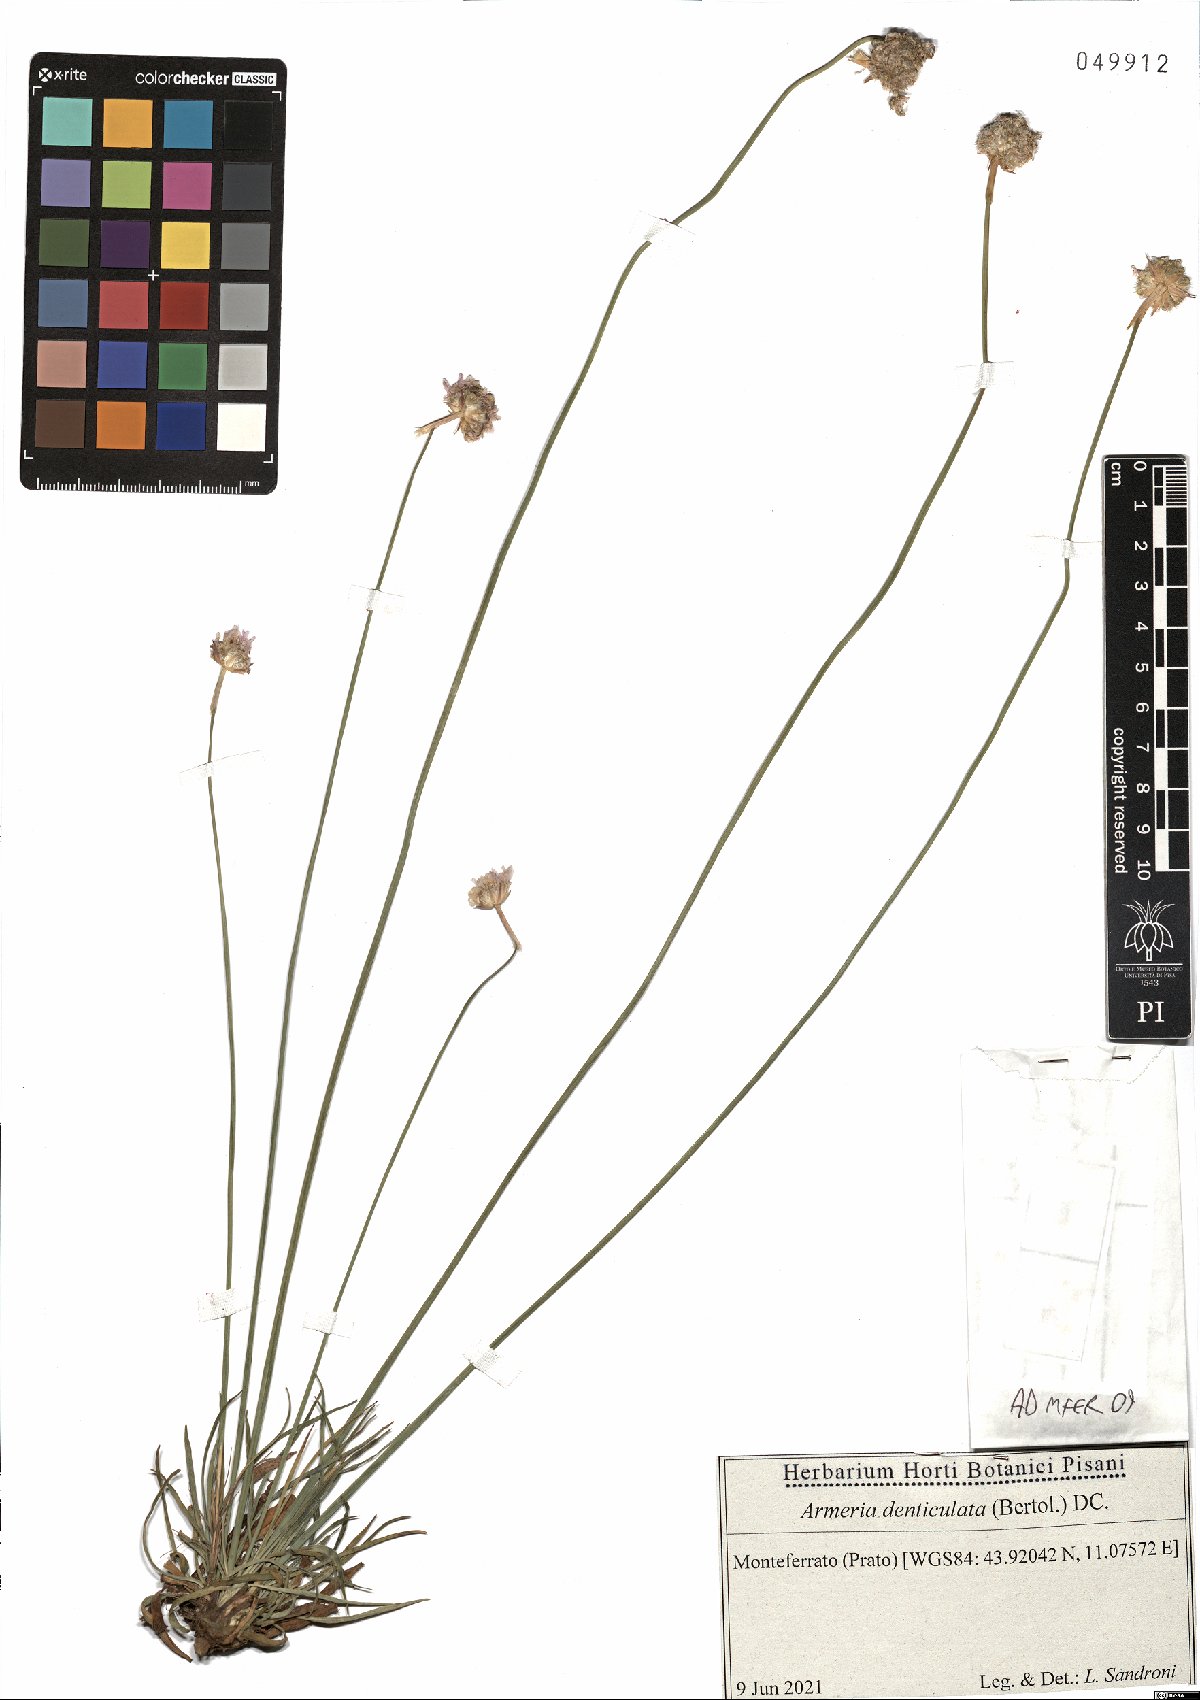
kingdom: Plantae
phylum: Tracheophyta
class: Magnoliopsida
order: Caryophyllales
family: Plumbaginaceae
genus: Armeria
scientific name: Armeria denticulata
